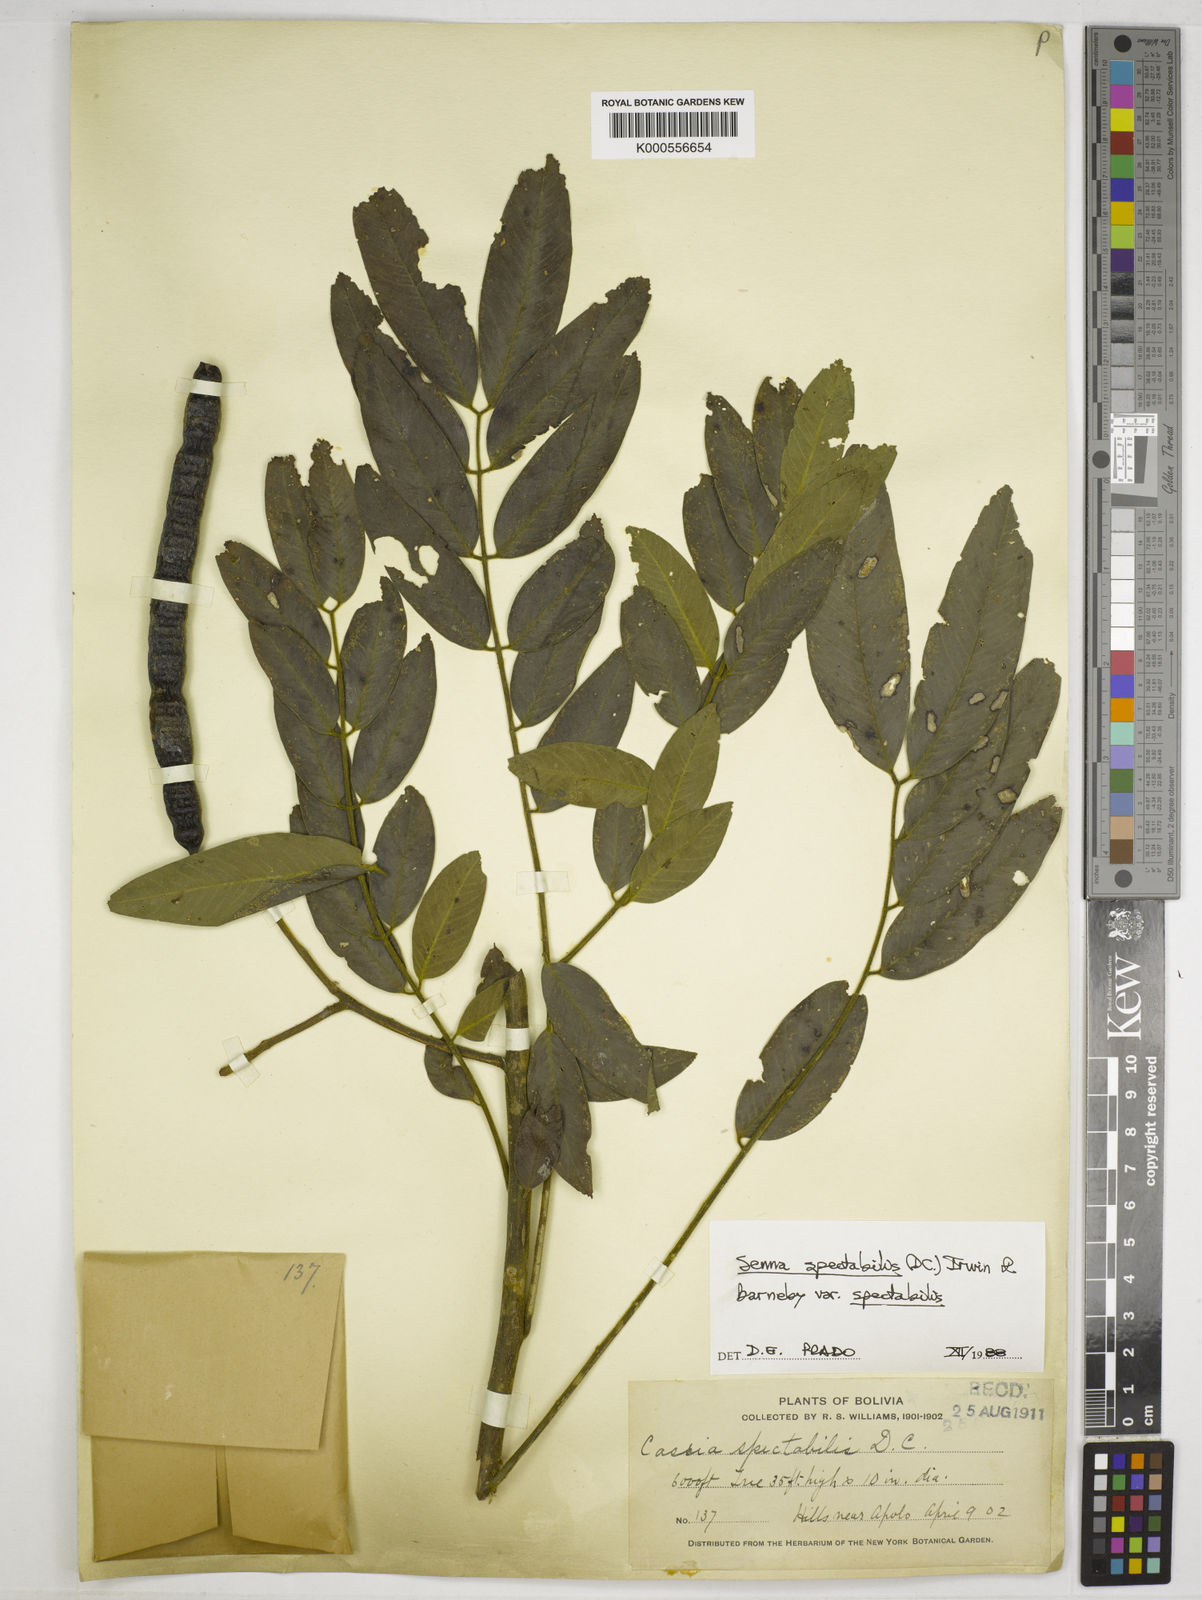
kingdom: Plantae
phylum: Tracheophyta
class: Magnoliopsida
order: Fabales
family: Fabaceae
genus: Senna
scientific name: Senna spectabilis
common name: Casia amarilla
